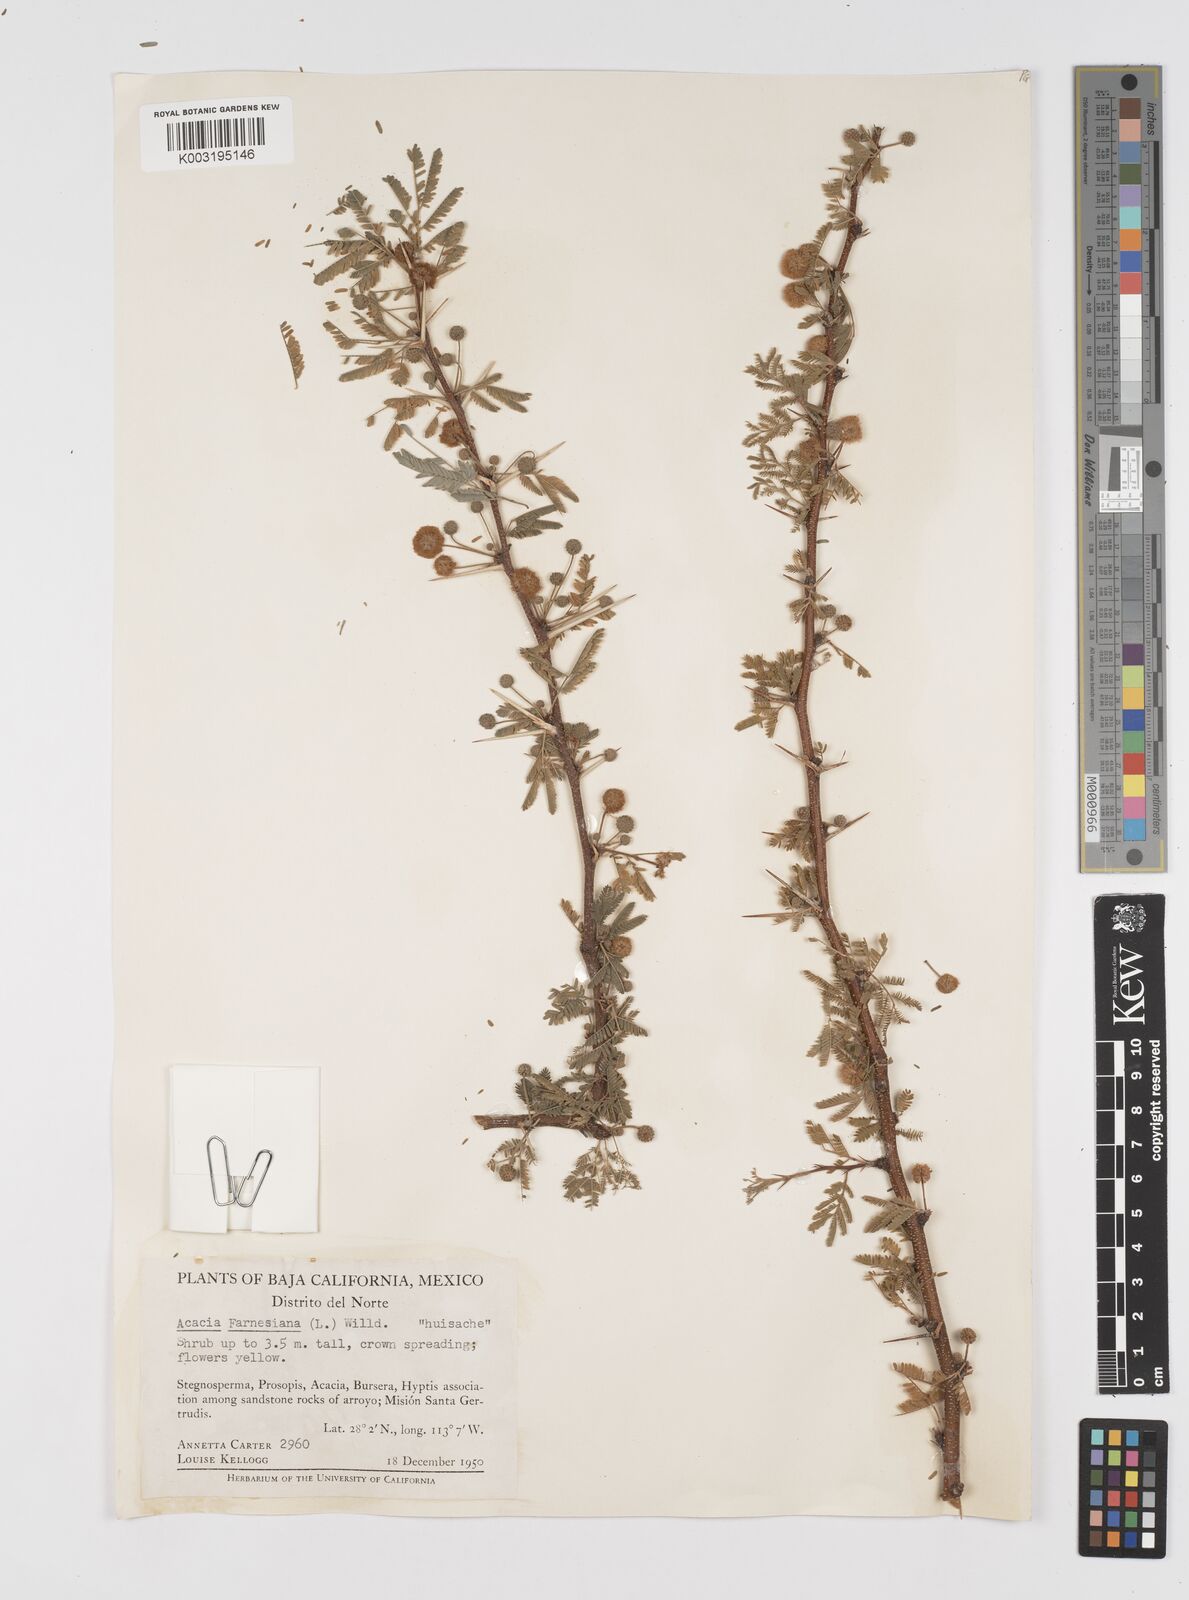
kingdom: Plantae
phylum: Tracheophyta
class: Magnoliopsida
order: Fabales
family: Fabaceae
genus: Vachellia
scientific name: Vachellia farnesiana
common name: Sweet acacia
